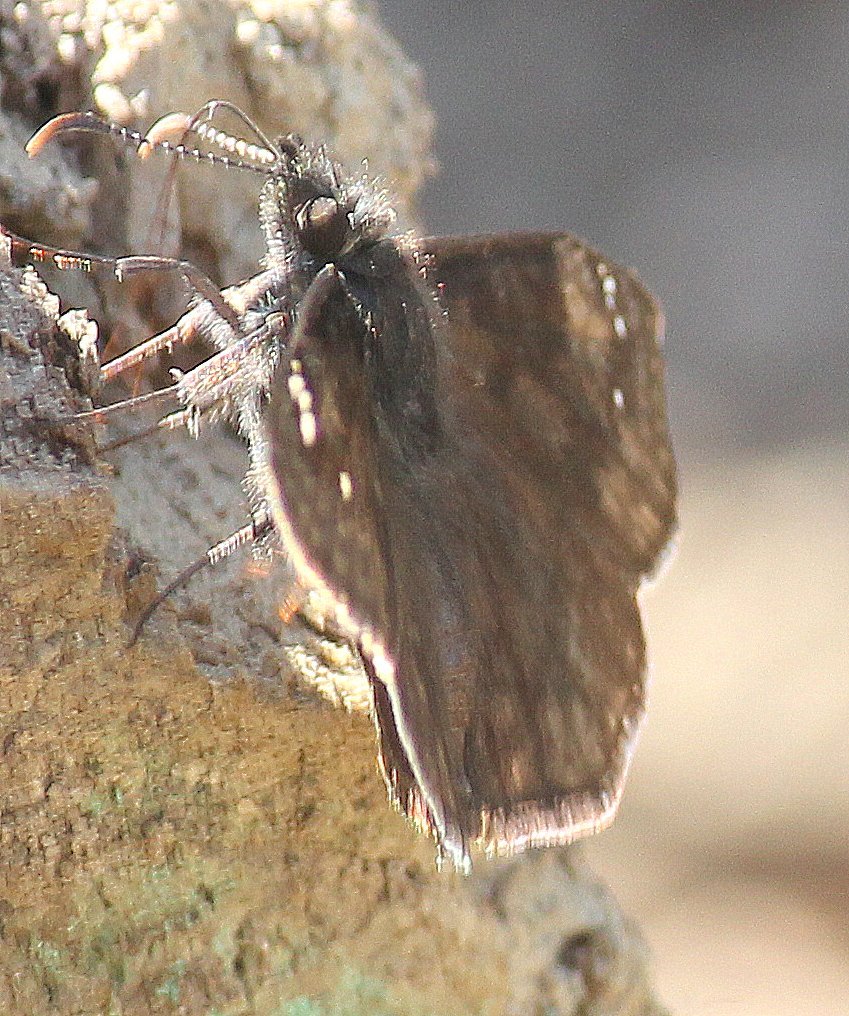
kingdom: Animalia
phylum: Arthropoda
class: Insecta
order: Lepidoptera
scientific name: Lepidoptera
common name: Butterflies
